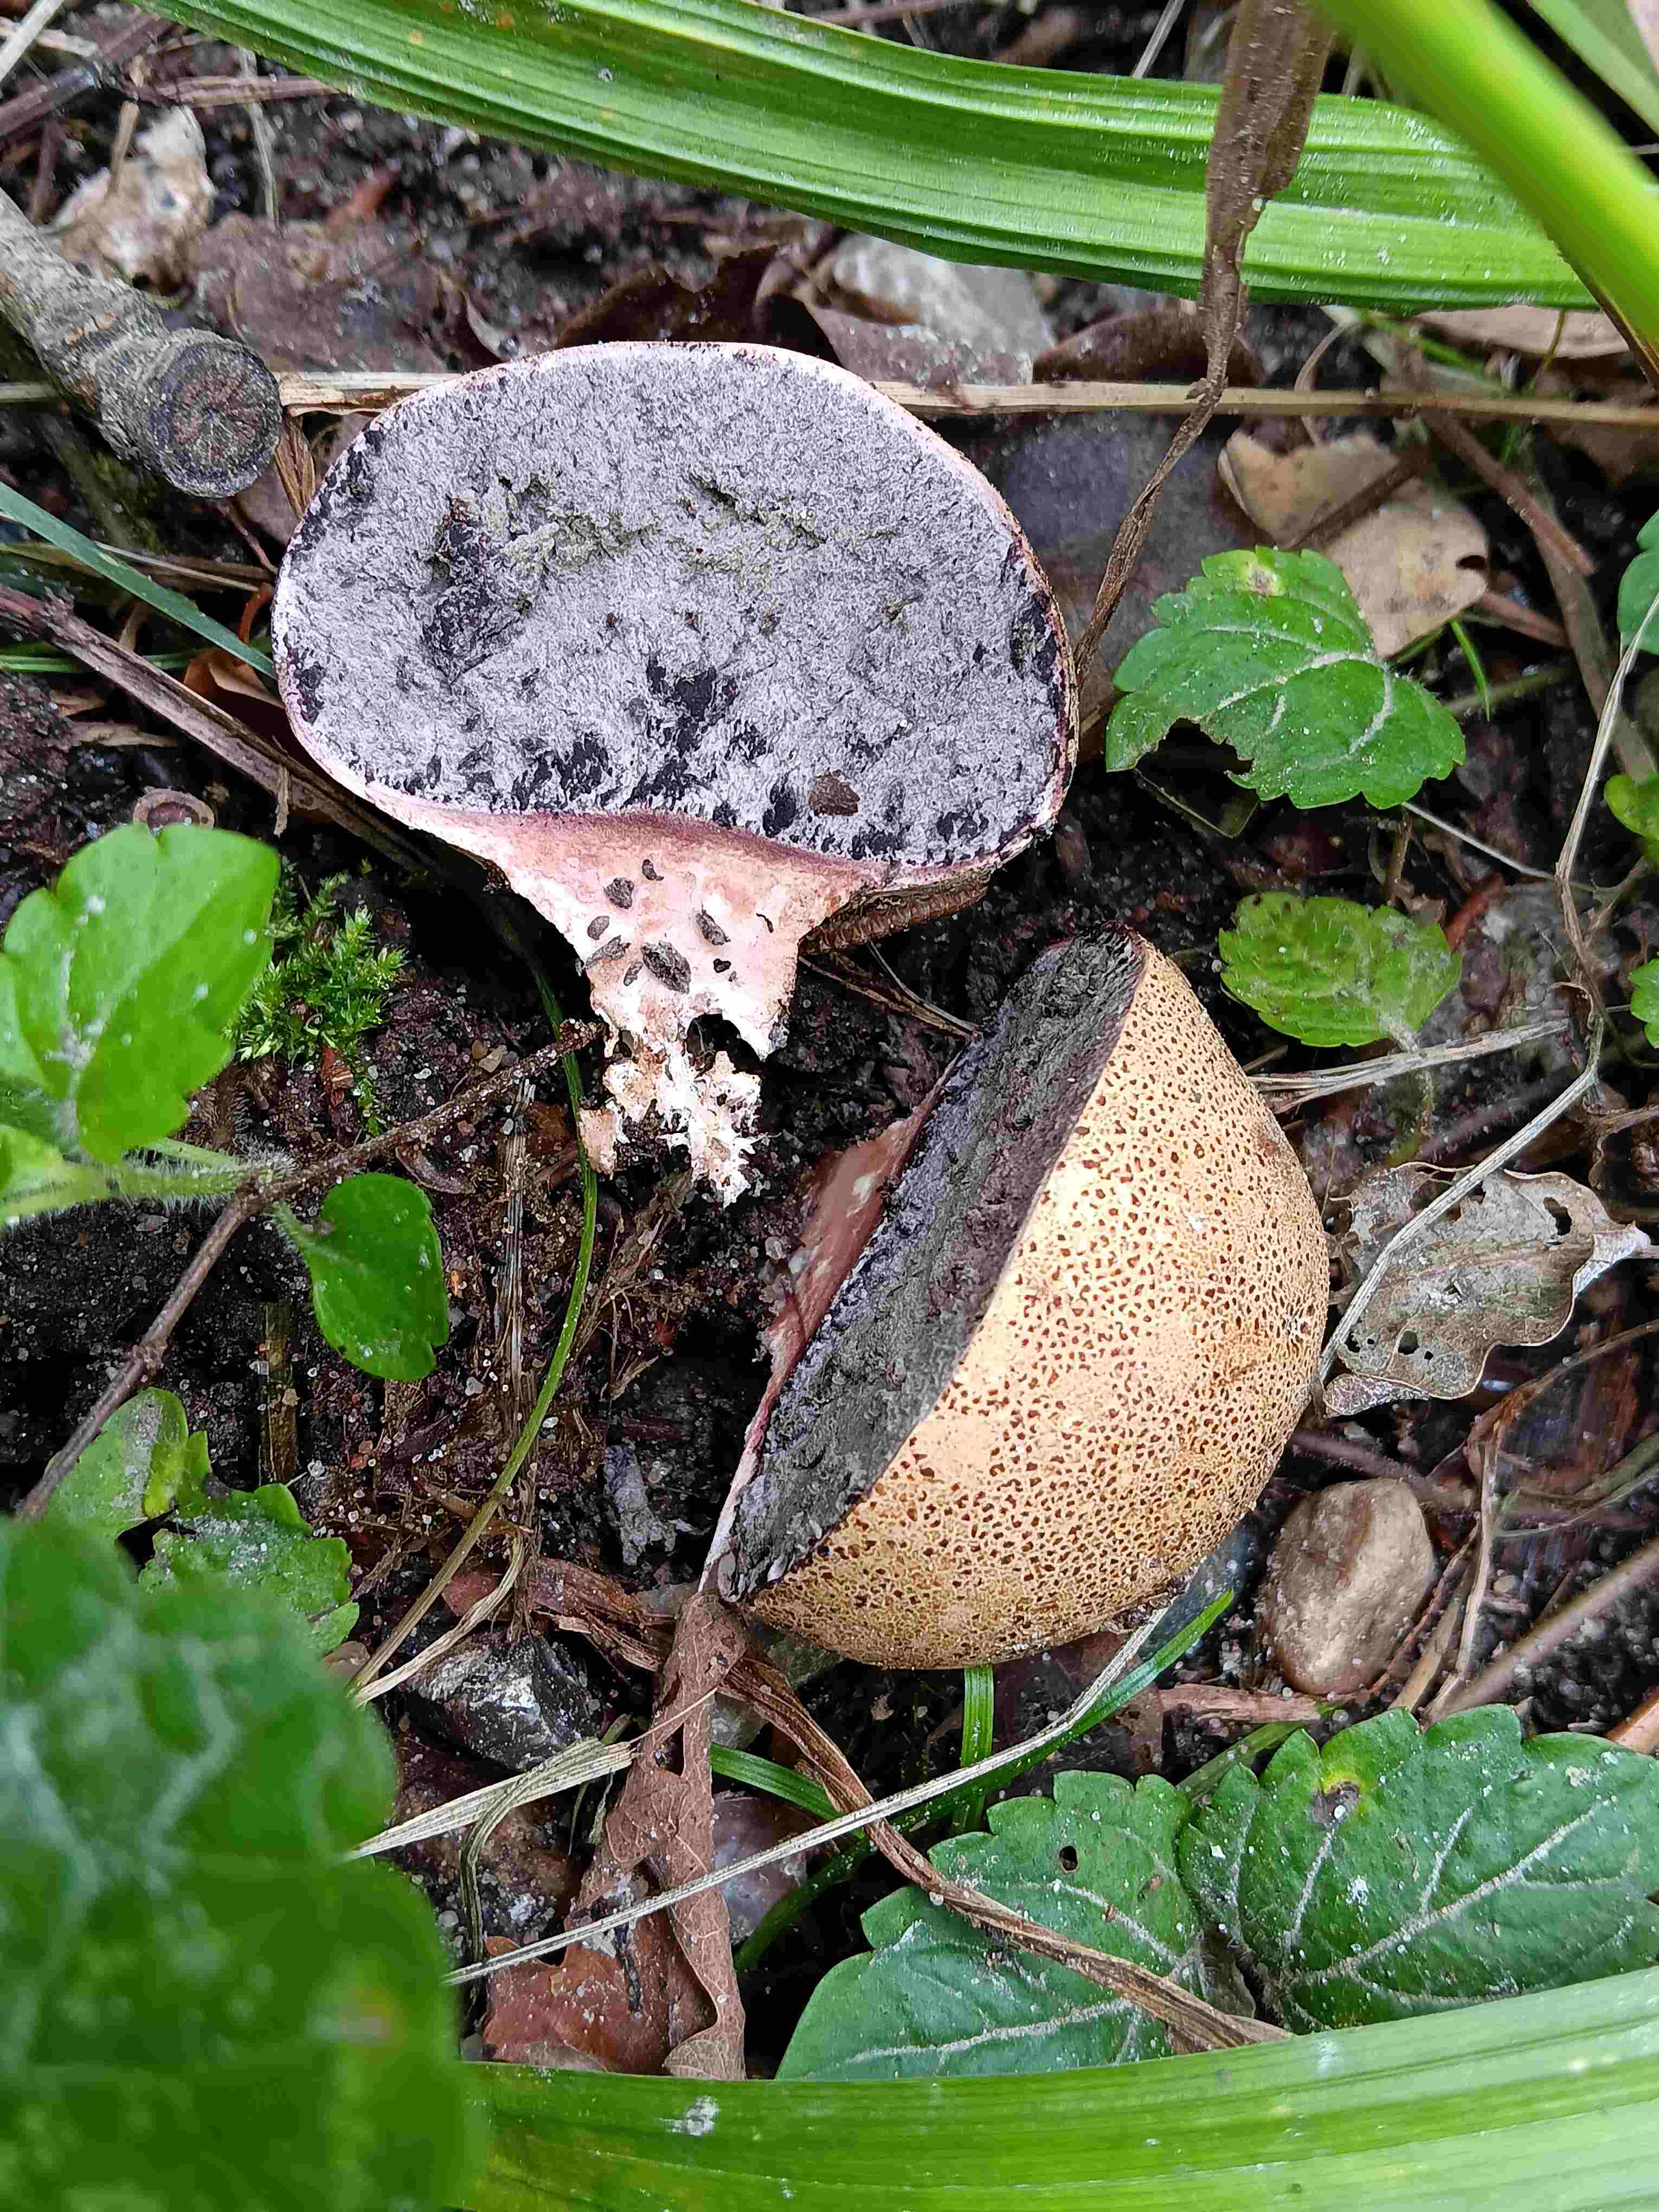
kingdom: Fungi
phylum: Basidiomycota
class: Agaricomycetes
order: Boletales
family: Sclerodermataceae
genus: Scleroderma
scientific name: Scleroderma
